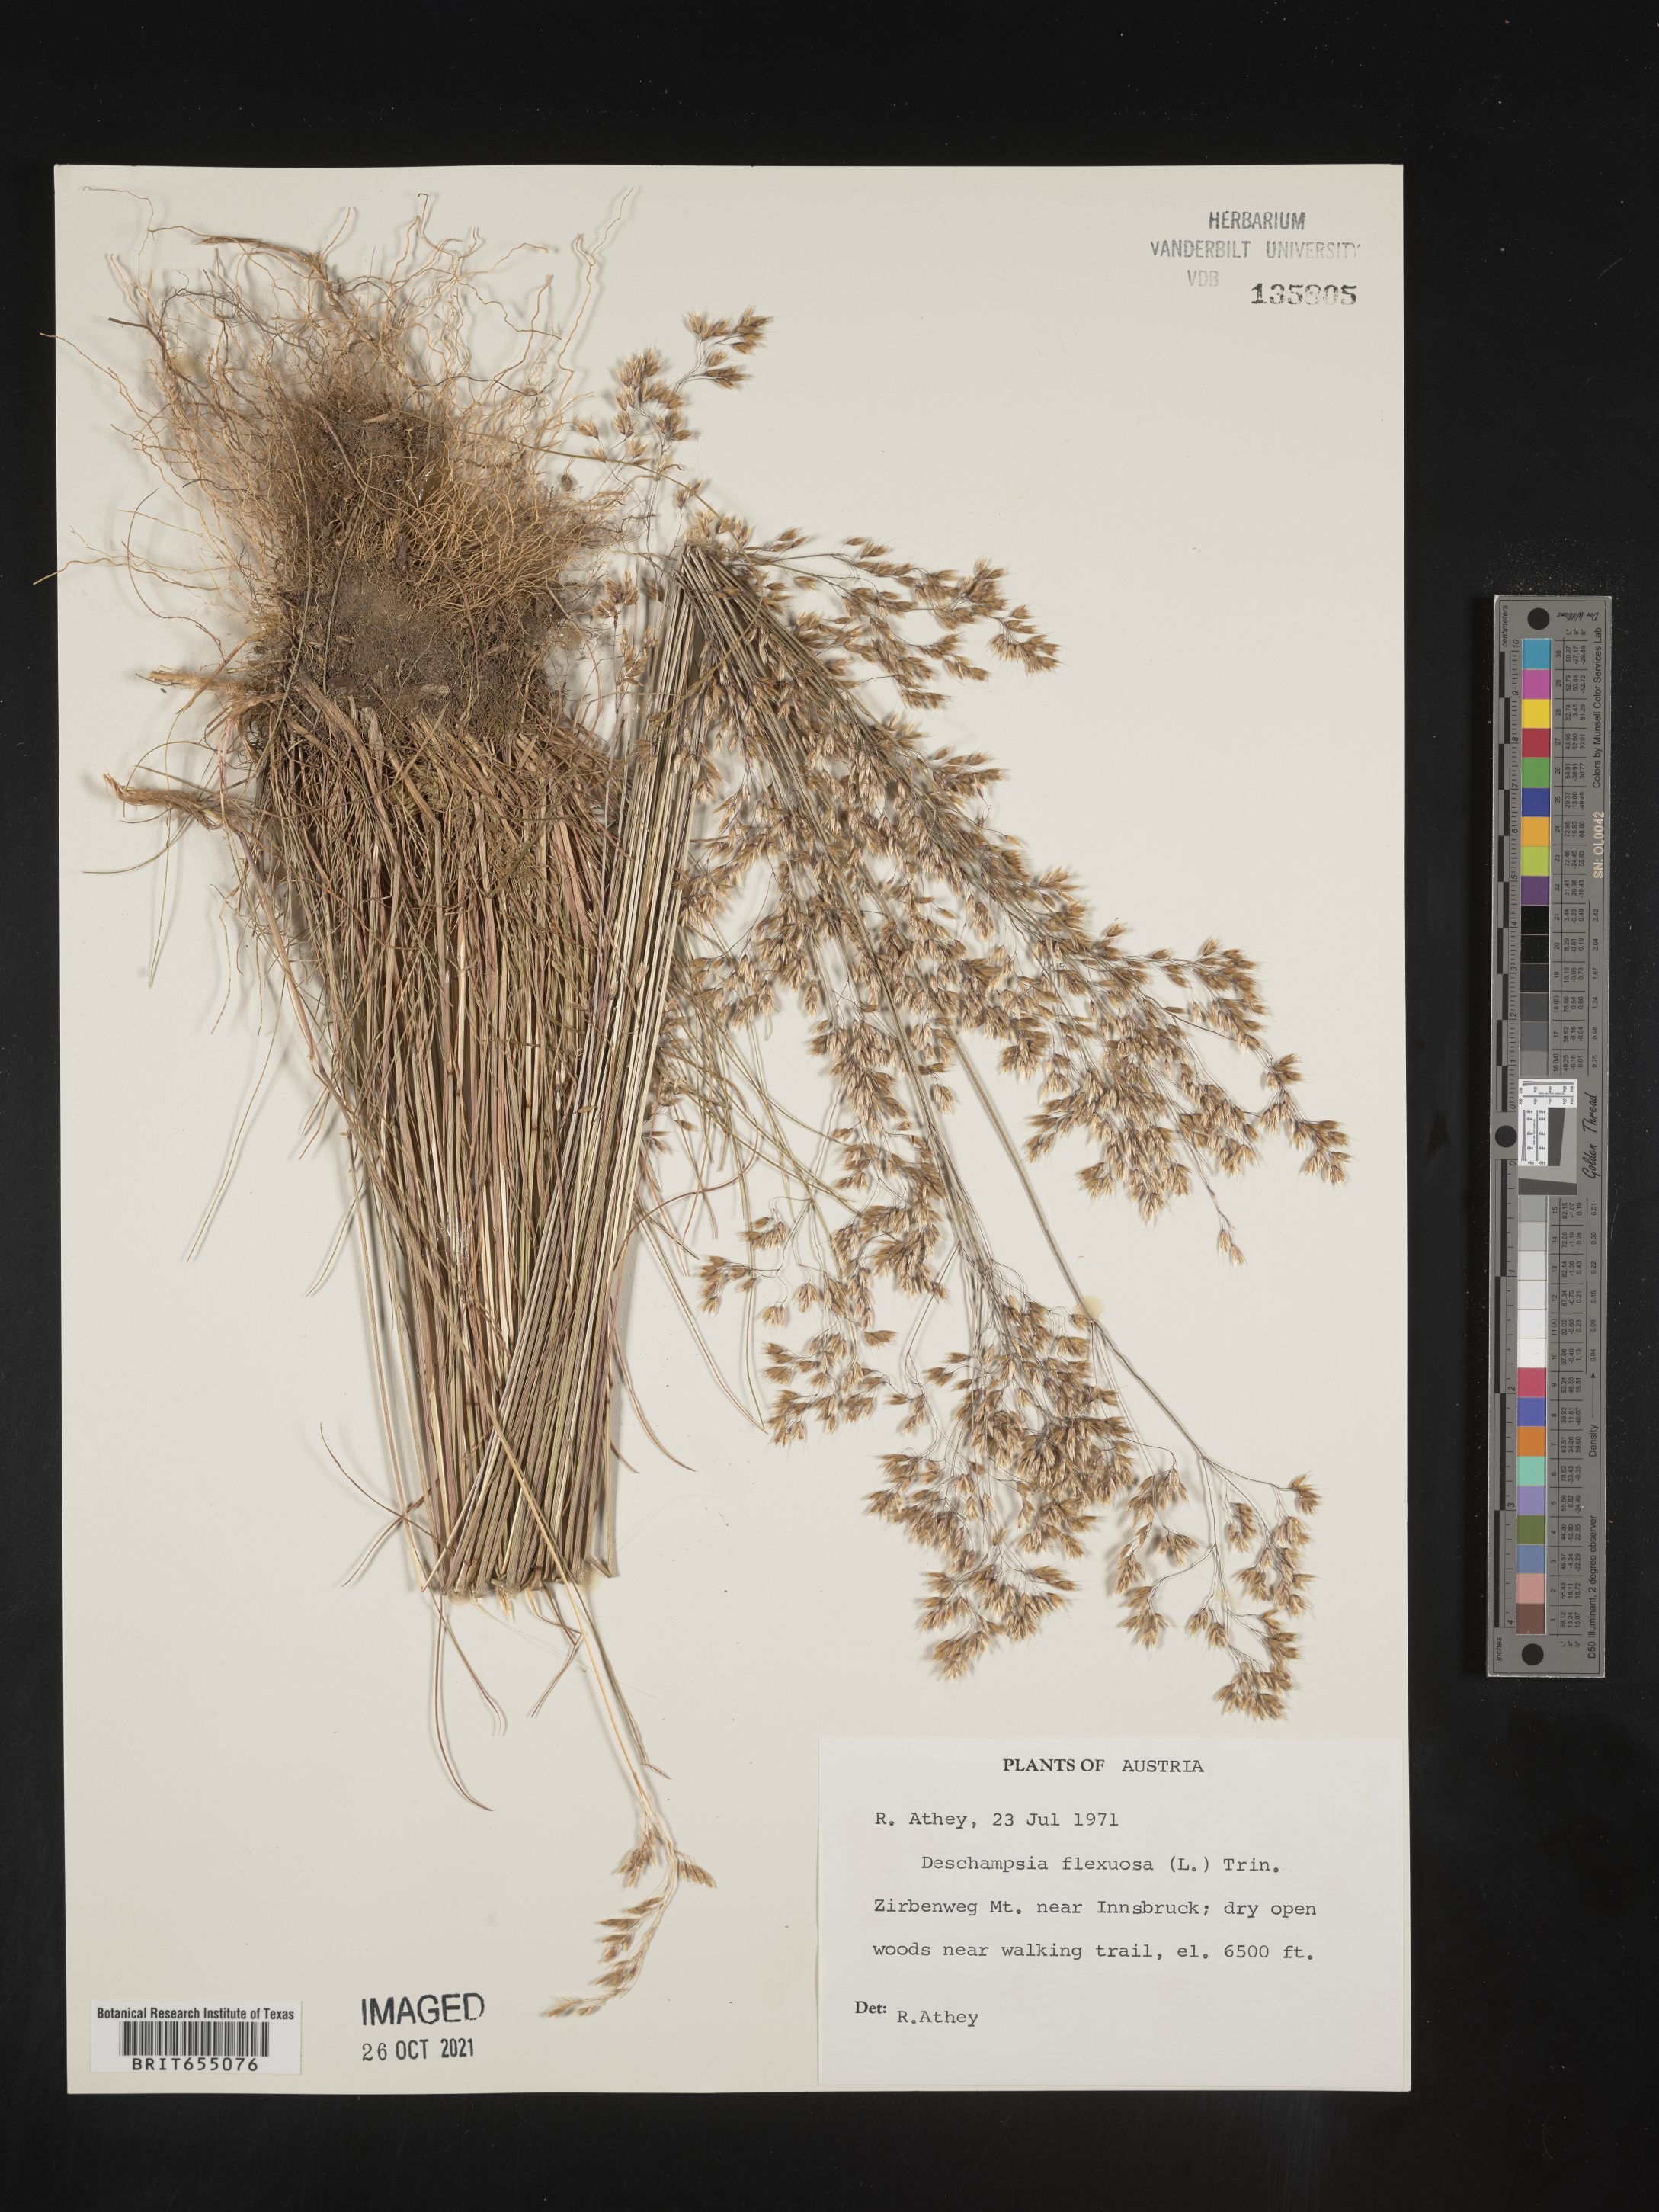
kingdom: Plantae
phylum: Tracheophyta
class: Liliopsida
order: Poales
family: Poaceae
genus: Deschampsia
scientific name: Deschampsia
